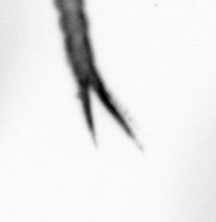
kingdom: Animalia
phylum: Arthropoda
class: Copepoda
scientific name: Copepoda
